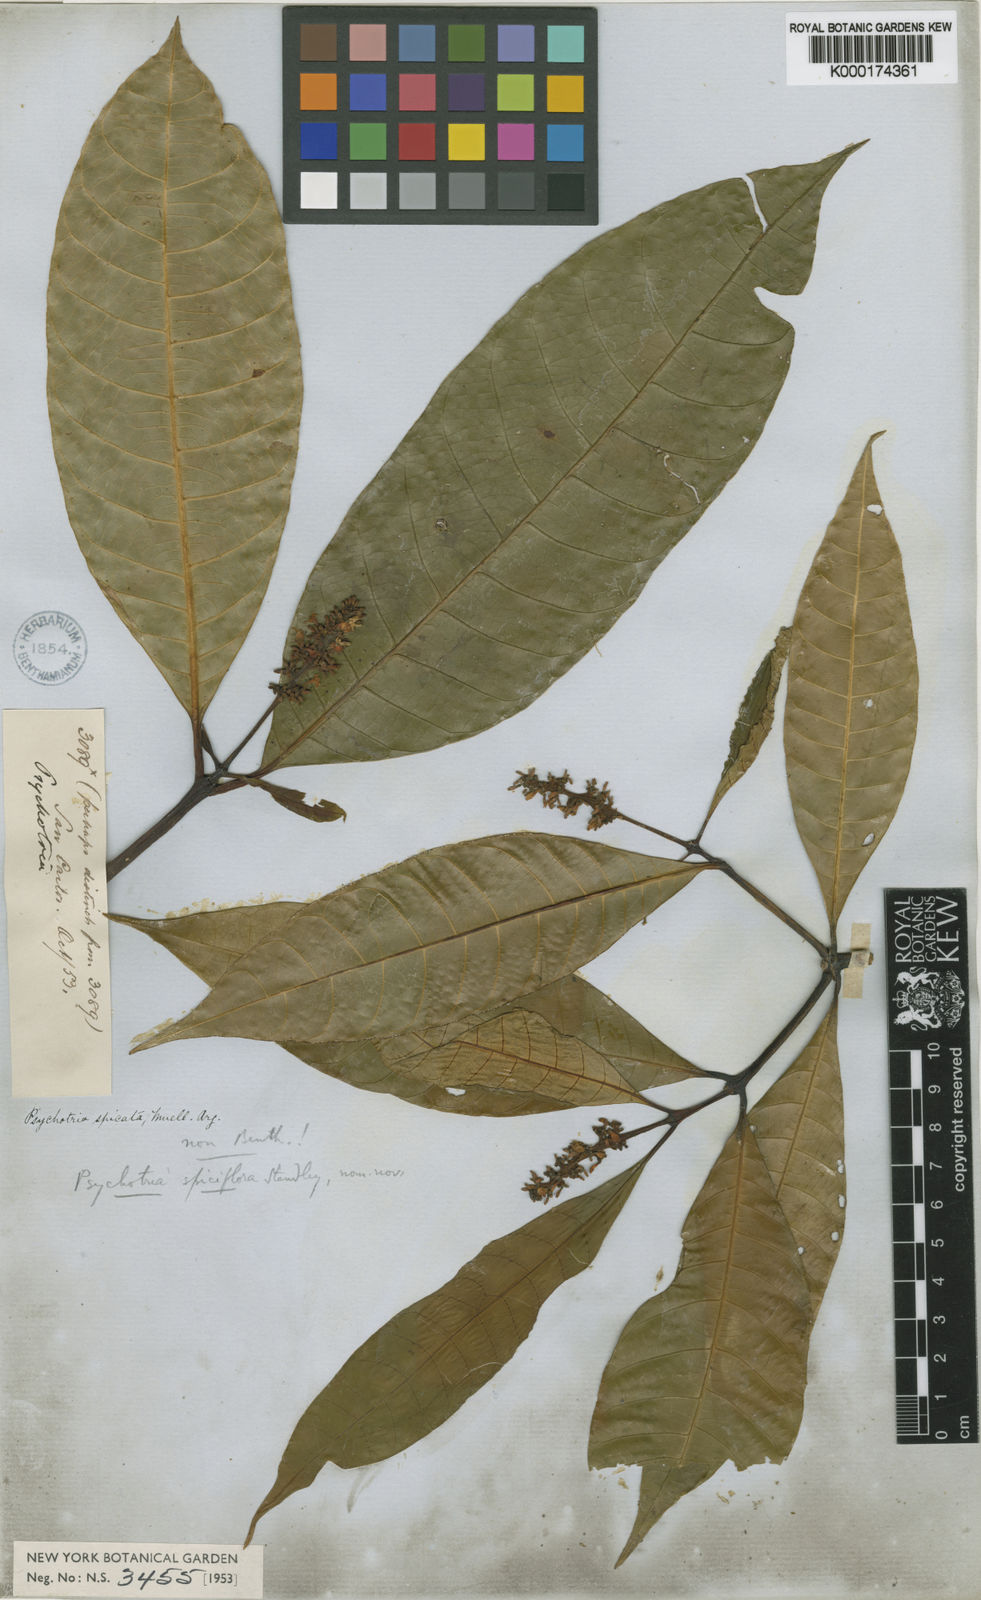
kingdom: Plantae
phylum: Tracheophyta
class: Magnoliopsida
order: Gentianales
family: Rubiaceae
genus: Psychotria
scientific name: Psychotria
